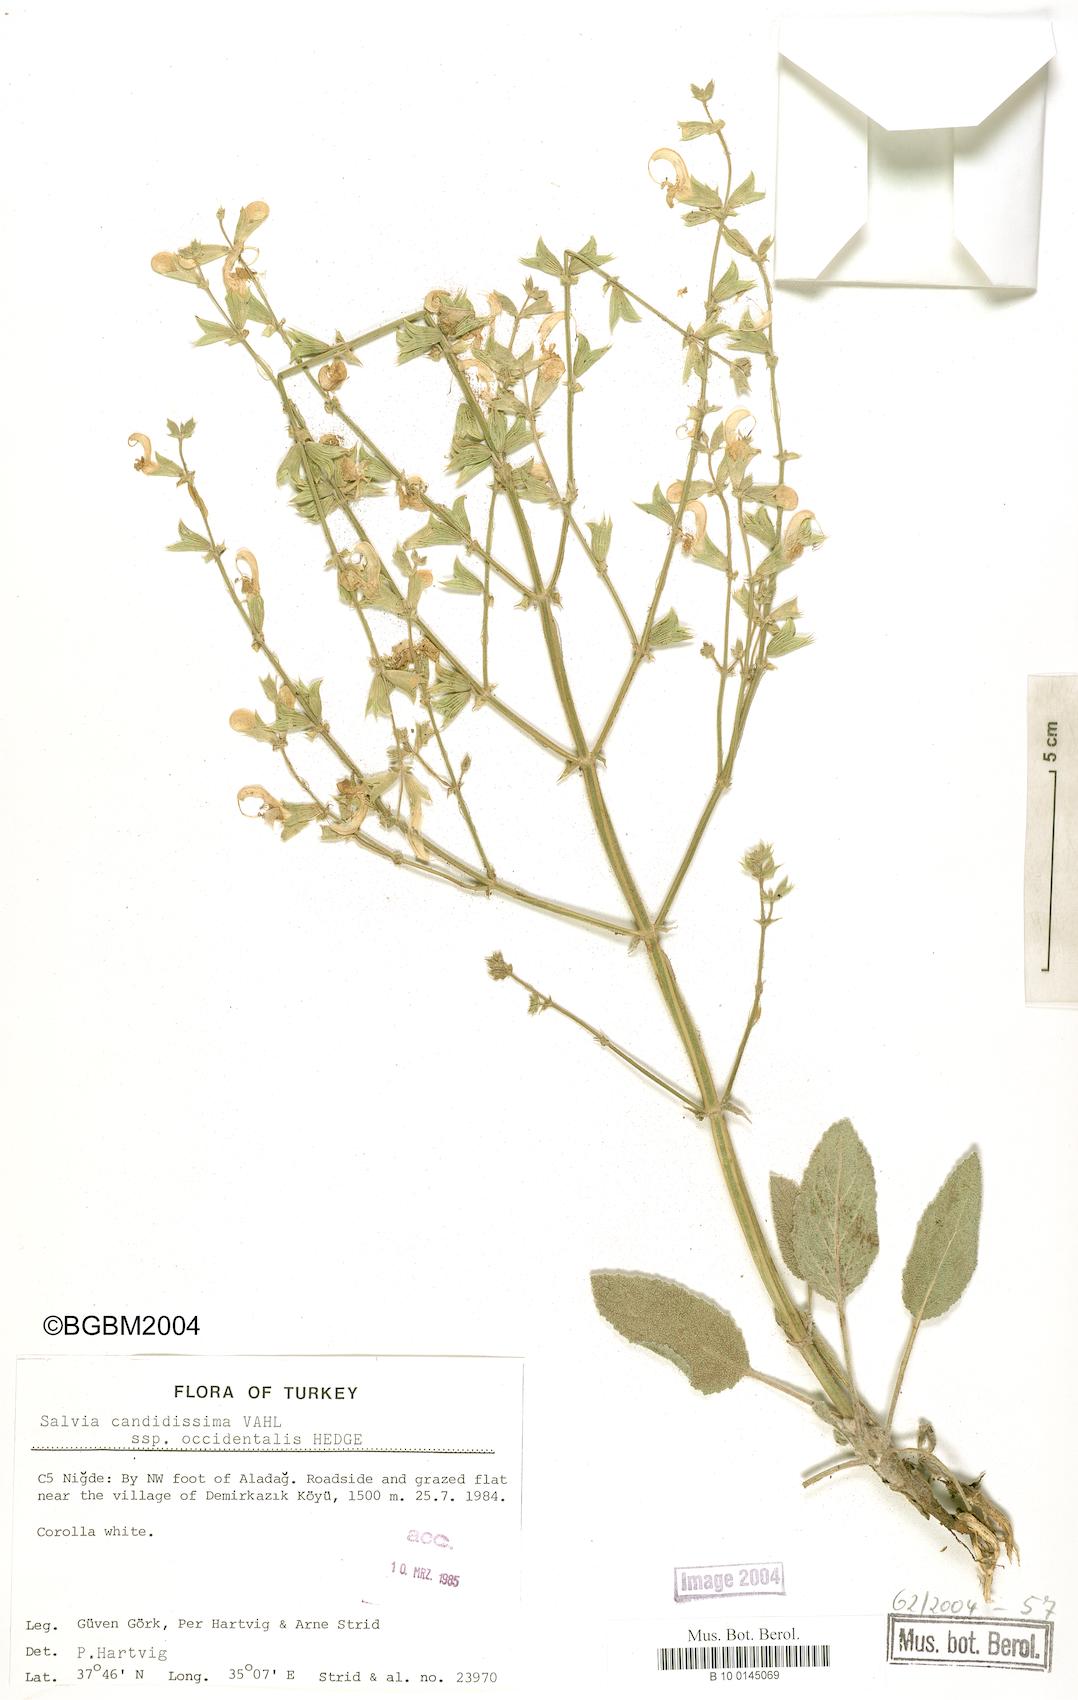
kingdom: Plantae
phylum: Tracheophyta
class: Magnoliopsida
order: Lamiales
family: Lamiaceae
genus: Salvia
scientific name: Salvia candidissima
